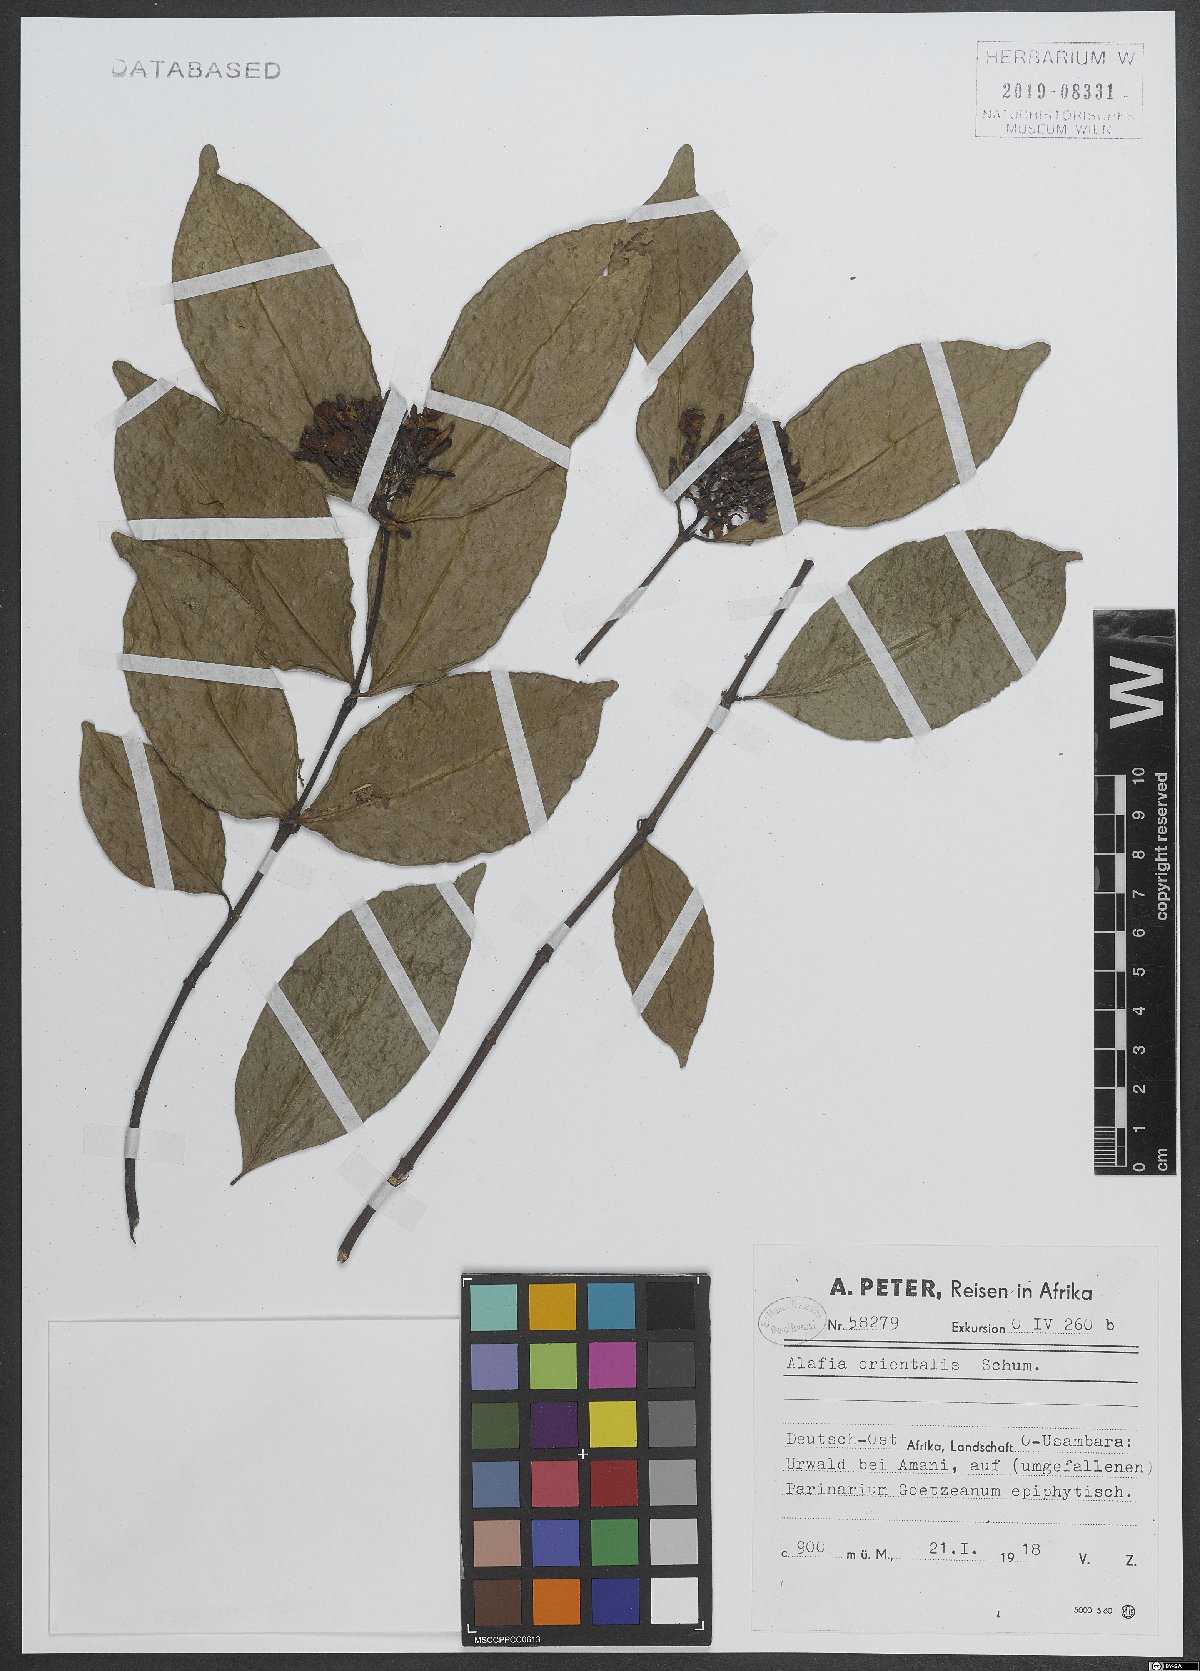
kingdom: Plantae
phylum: Tracheophyta
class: Magnoliopsida
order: Gentianales
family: Apocynaceae
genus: Alafia
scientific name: Alafia orientalis
